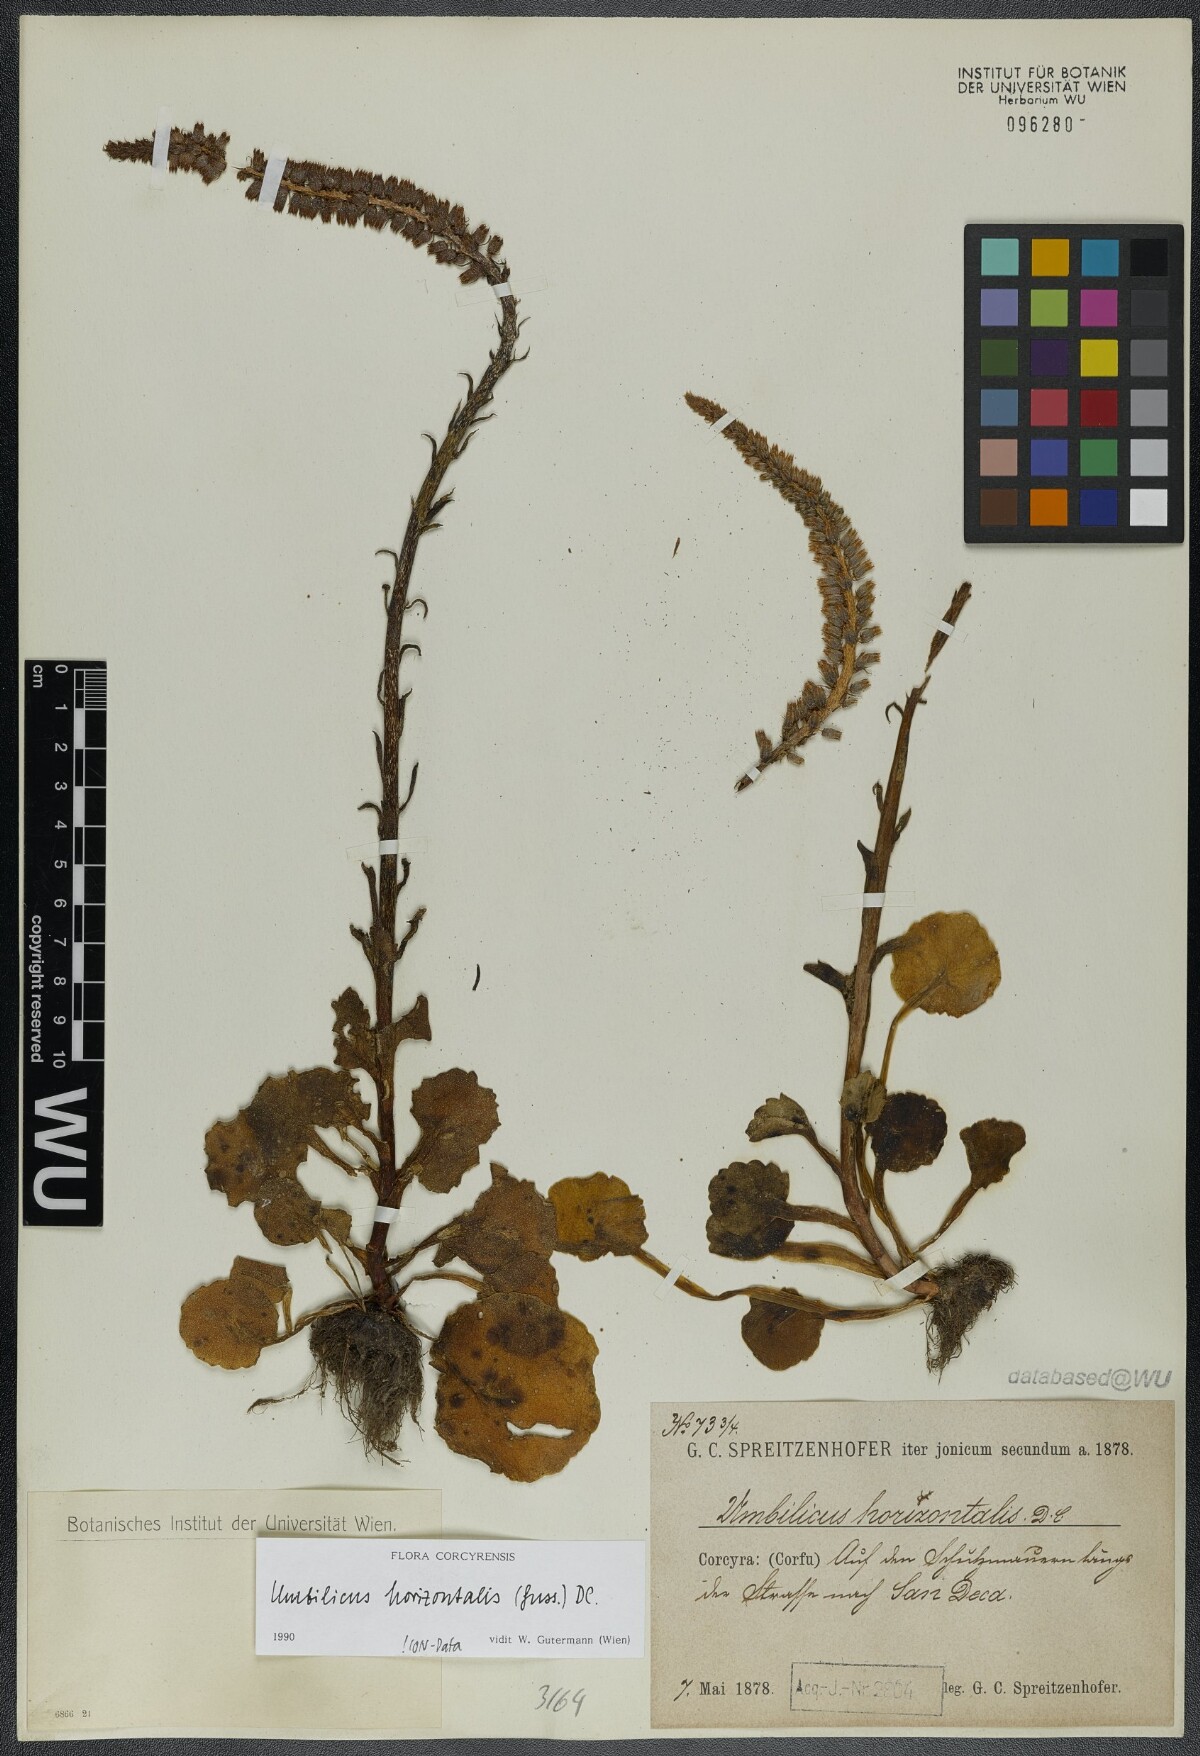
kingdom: Plantae
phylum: Tracheophyta
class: Magnoliopsida
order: Saxifragales
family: Crassulaceae
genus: Umbilicus
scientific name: Umbilicus horizontalis
